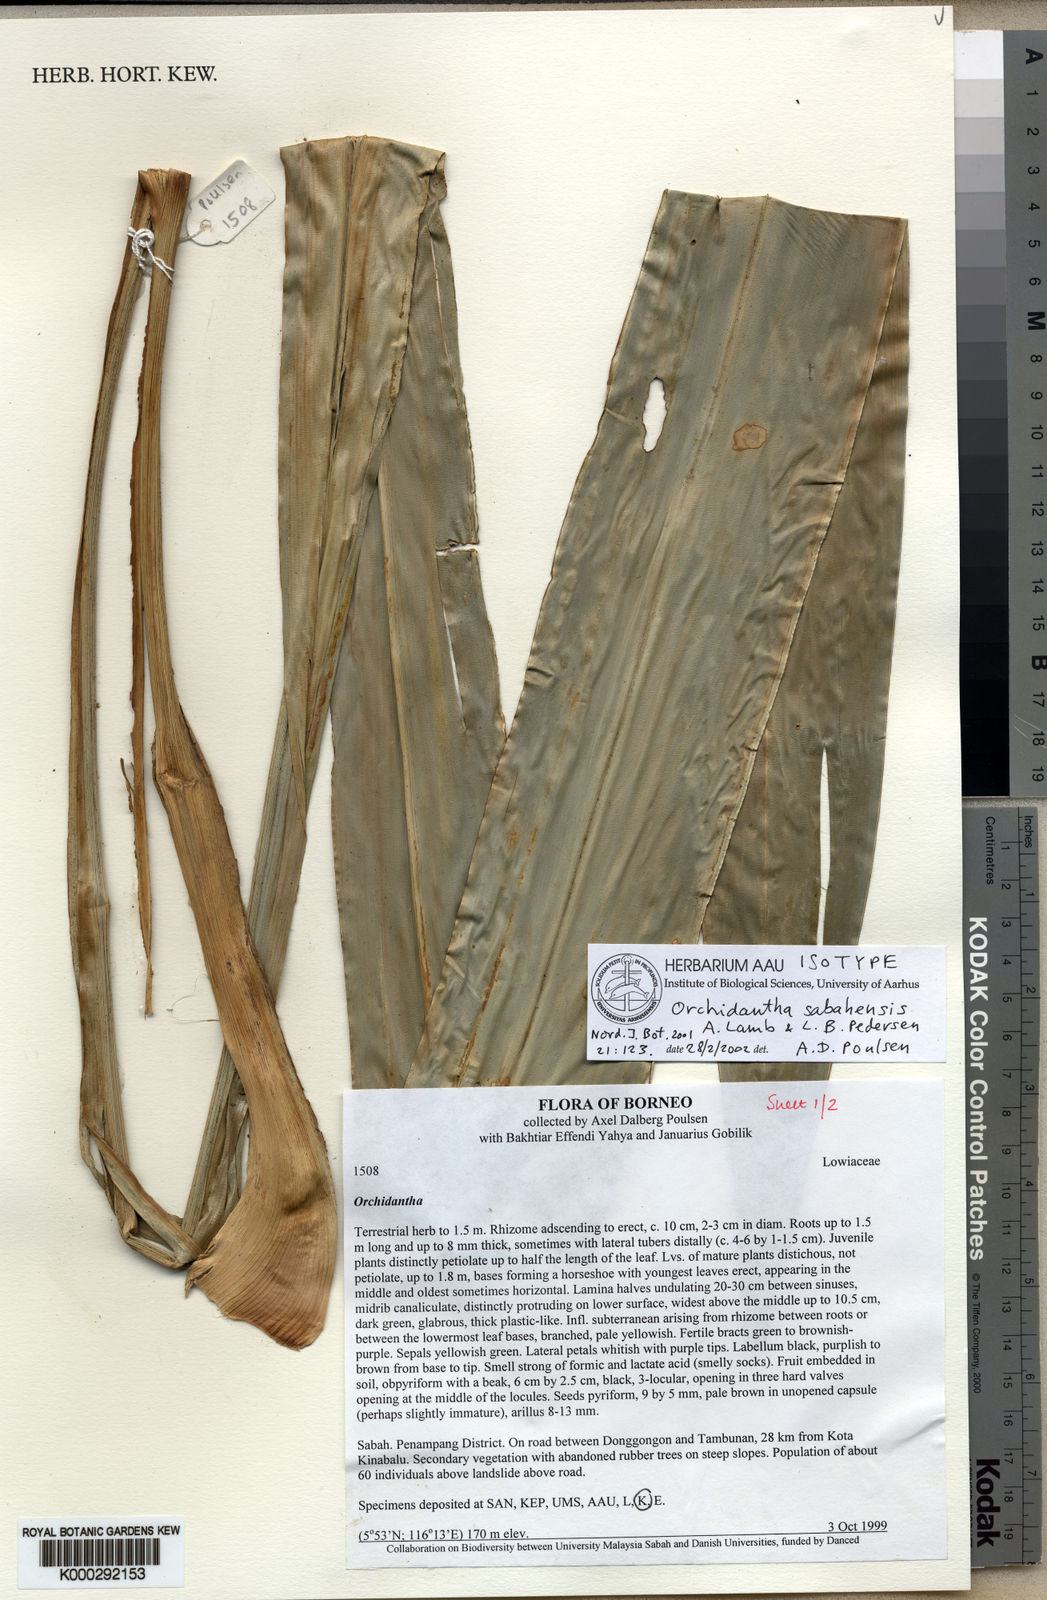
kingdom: Plantae
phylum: Tracheophyta
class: Liliopsida
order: Zingiberales
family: Lowiaceae
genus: Orchidantha
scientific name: Orchidantha sabahensis
